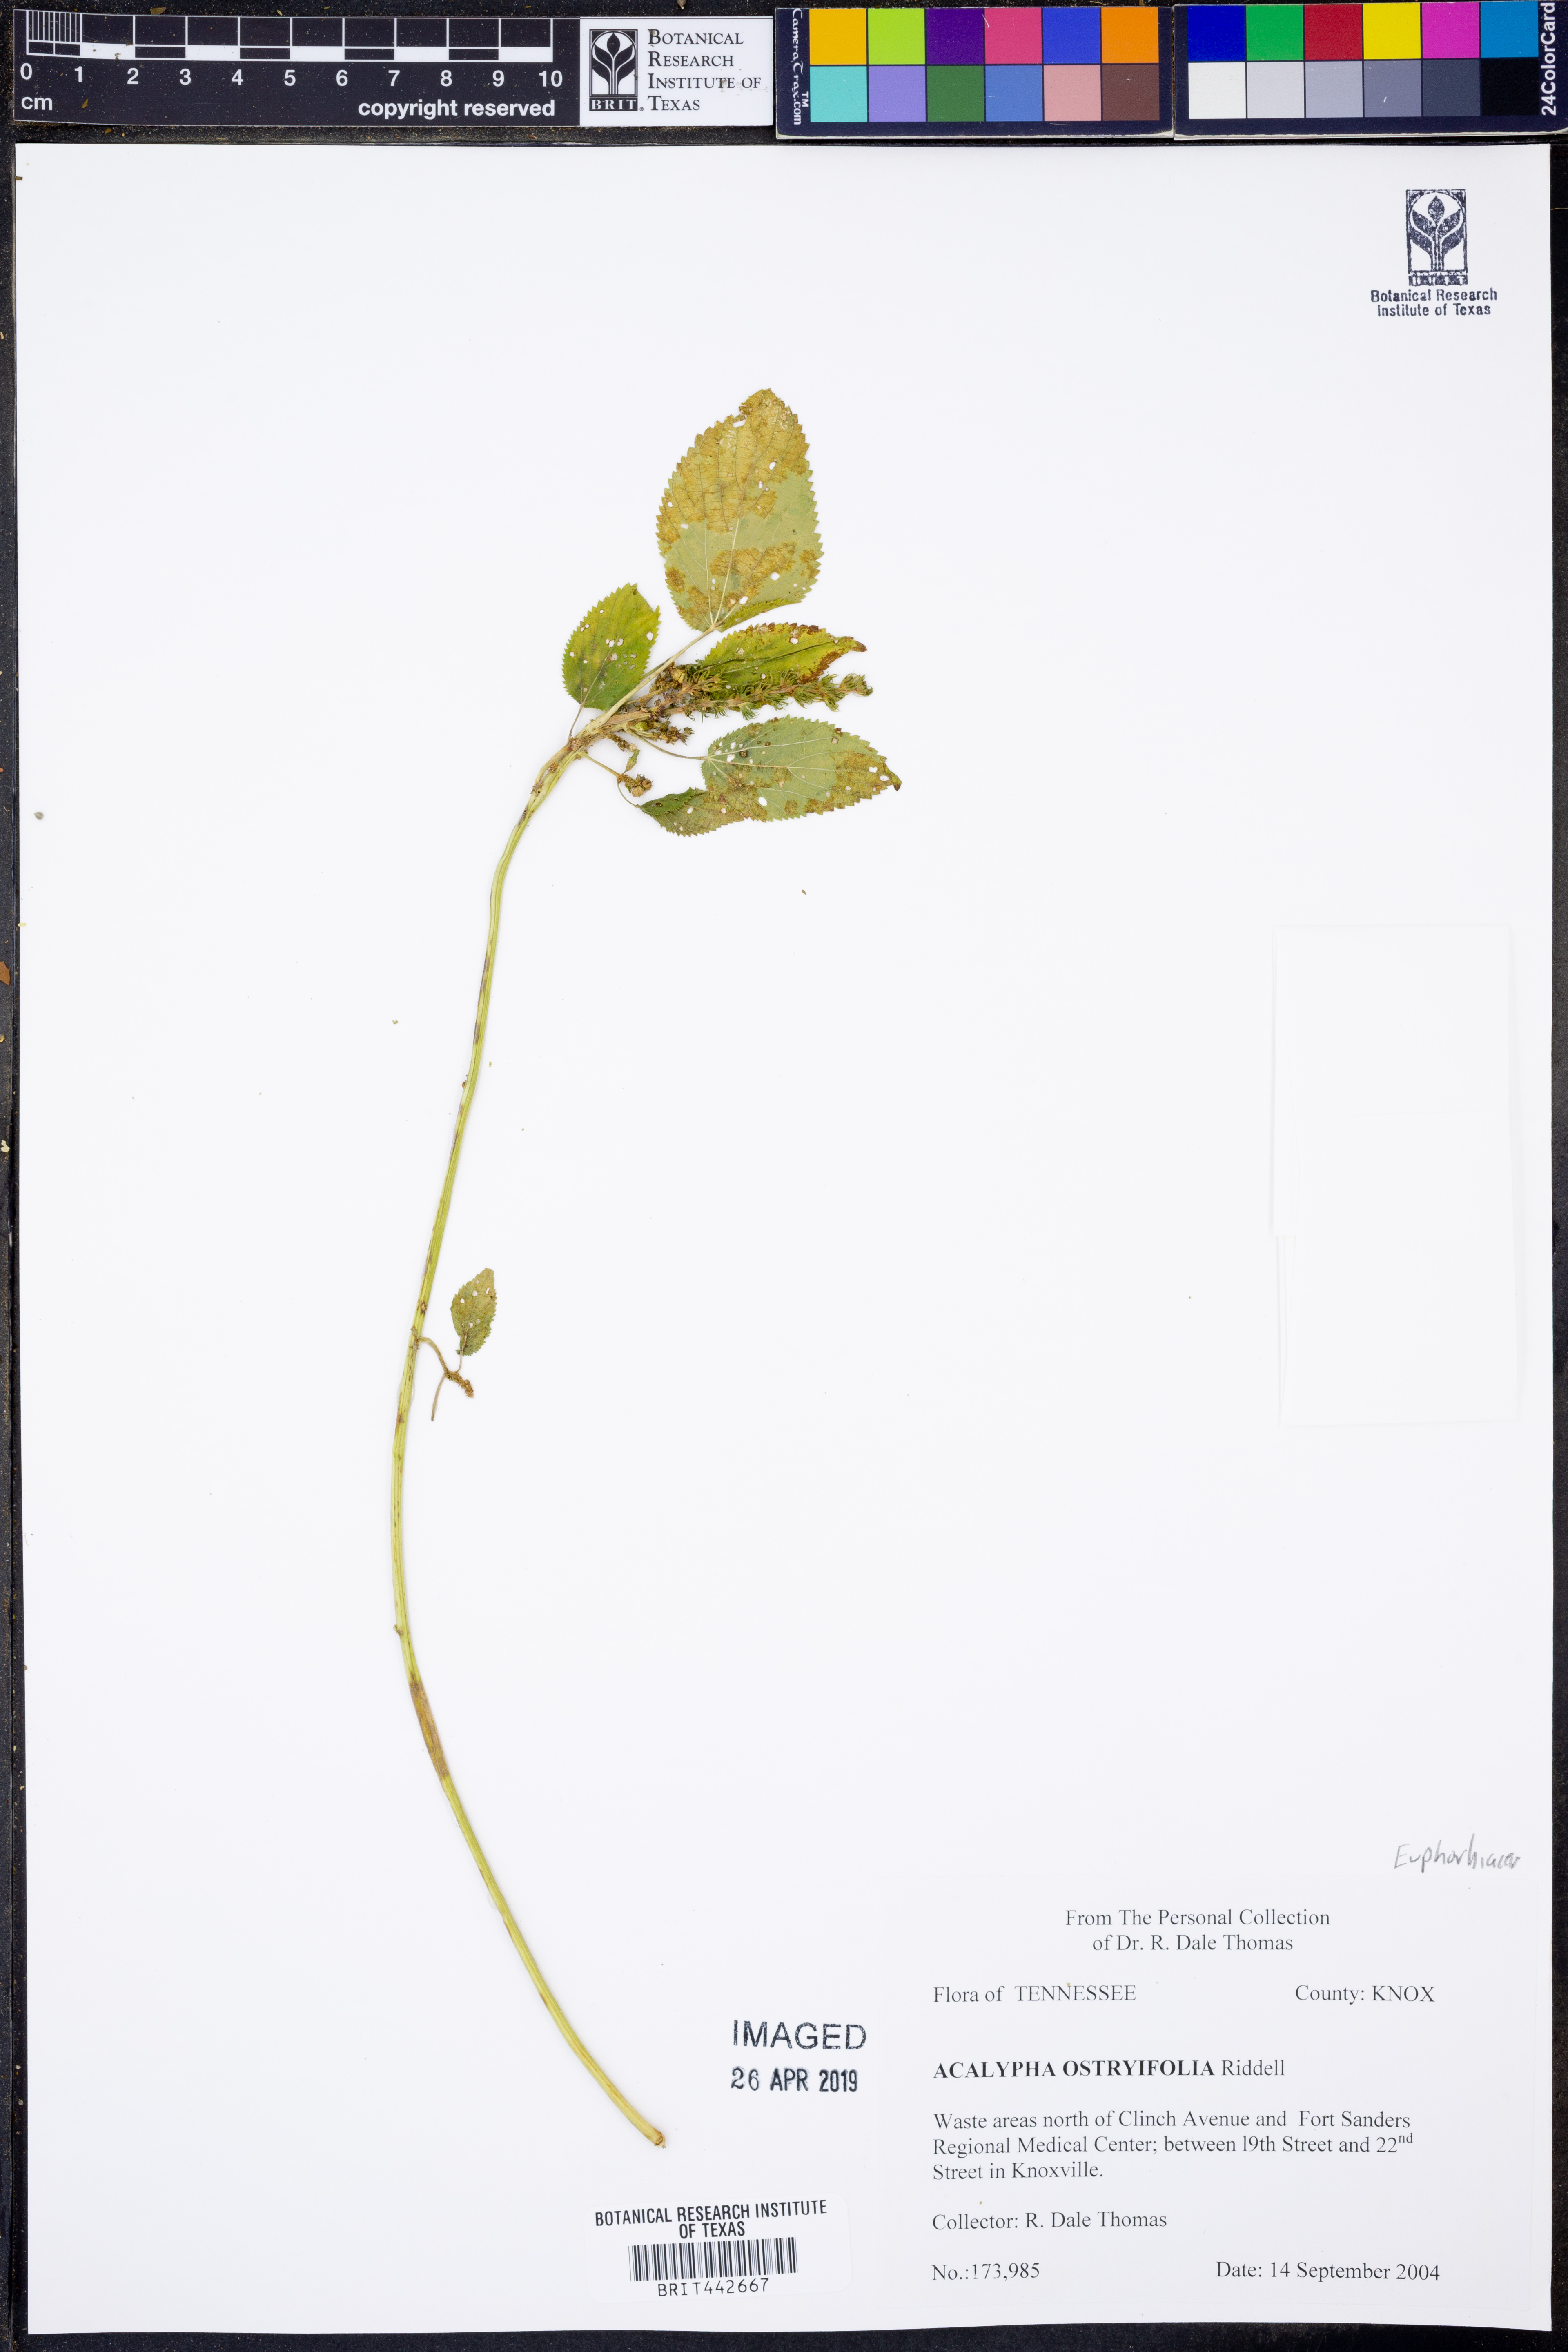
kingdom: Plantae
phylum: Tracheophyta
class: Magnoliopsida
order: Malpighiales
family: Euphorbiaceae
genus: Acalypha
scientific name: Acalypha persimilis
